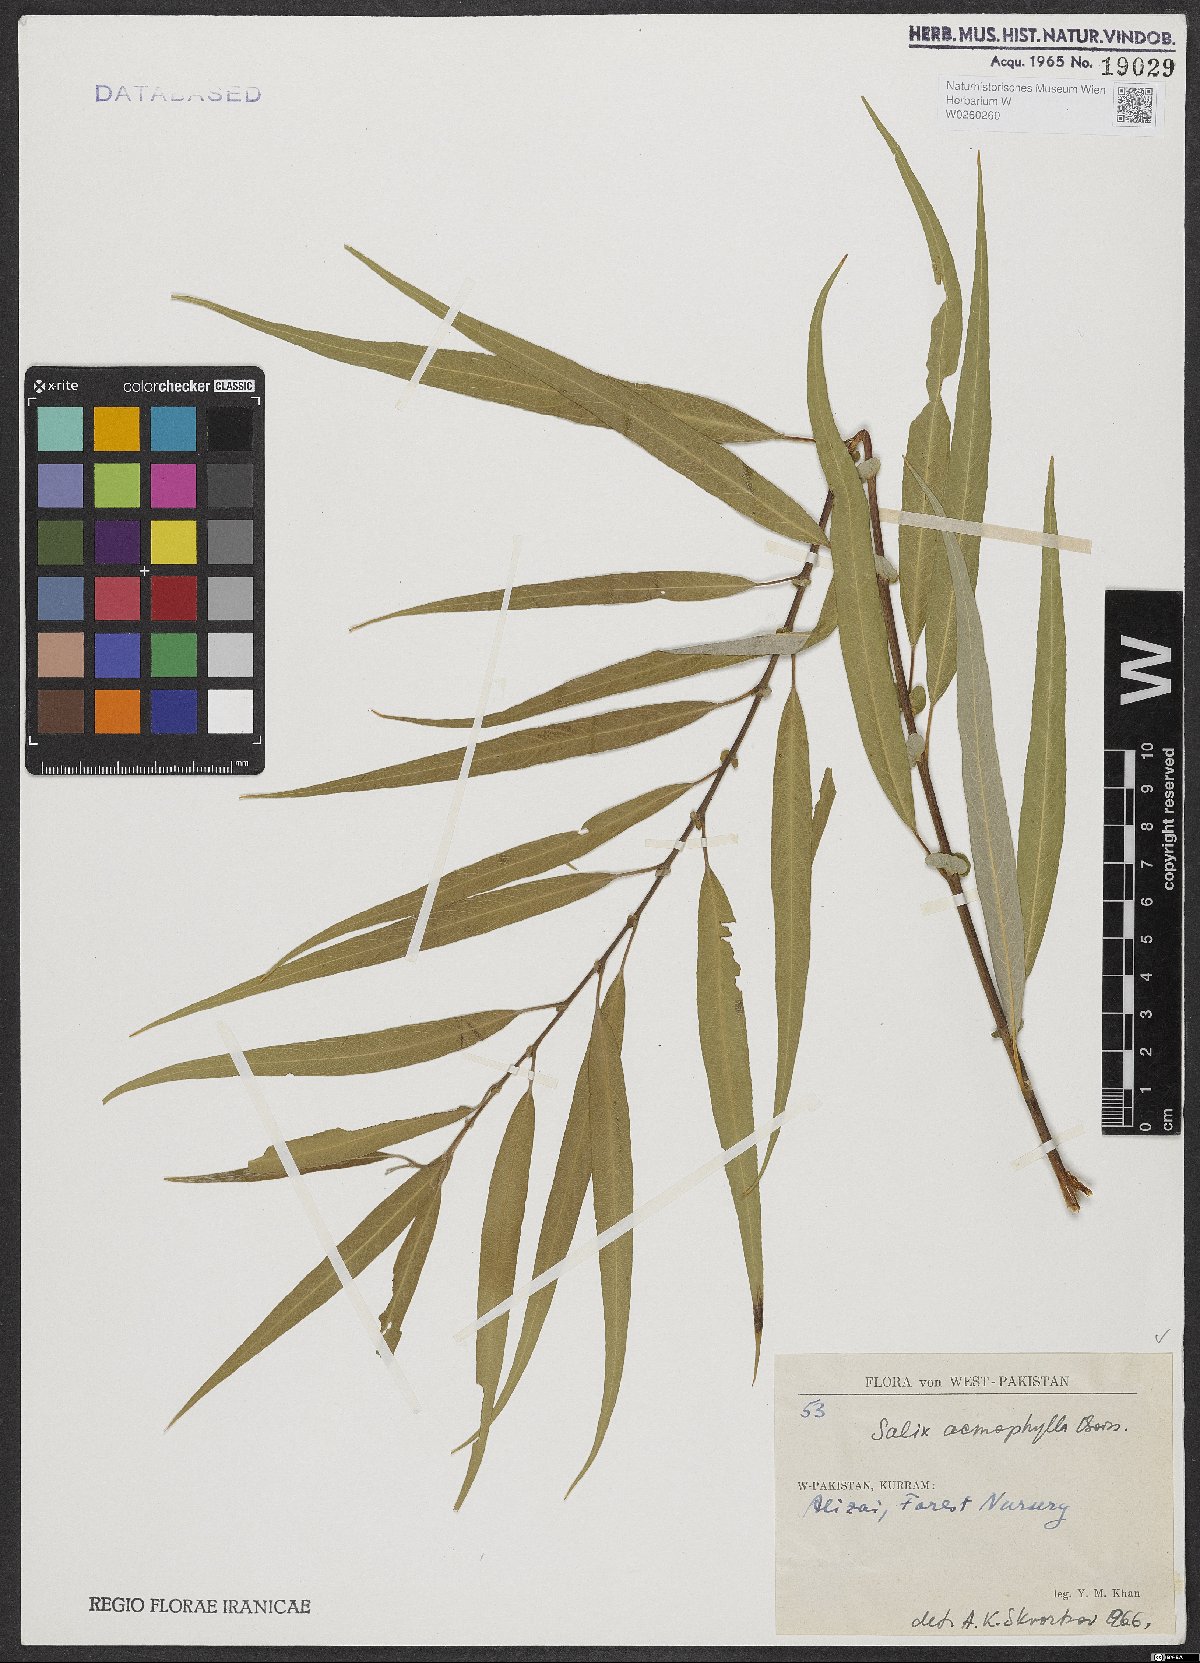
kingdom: Plantae
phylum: Tracheophyta
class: Magnoliopsida
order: Malpighiales
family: Salicaceae
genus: Salix
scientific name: Salix acmophylla
